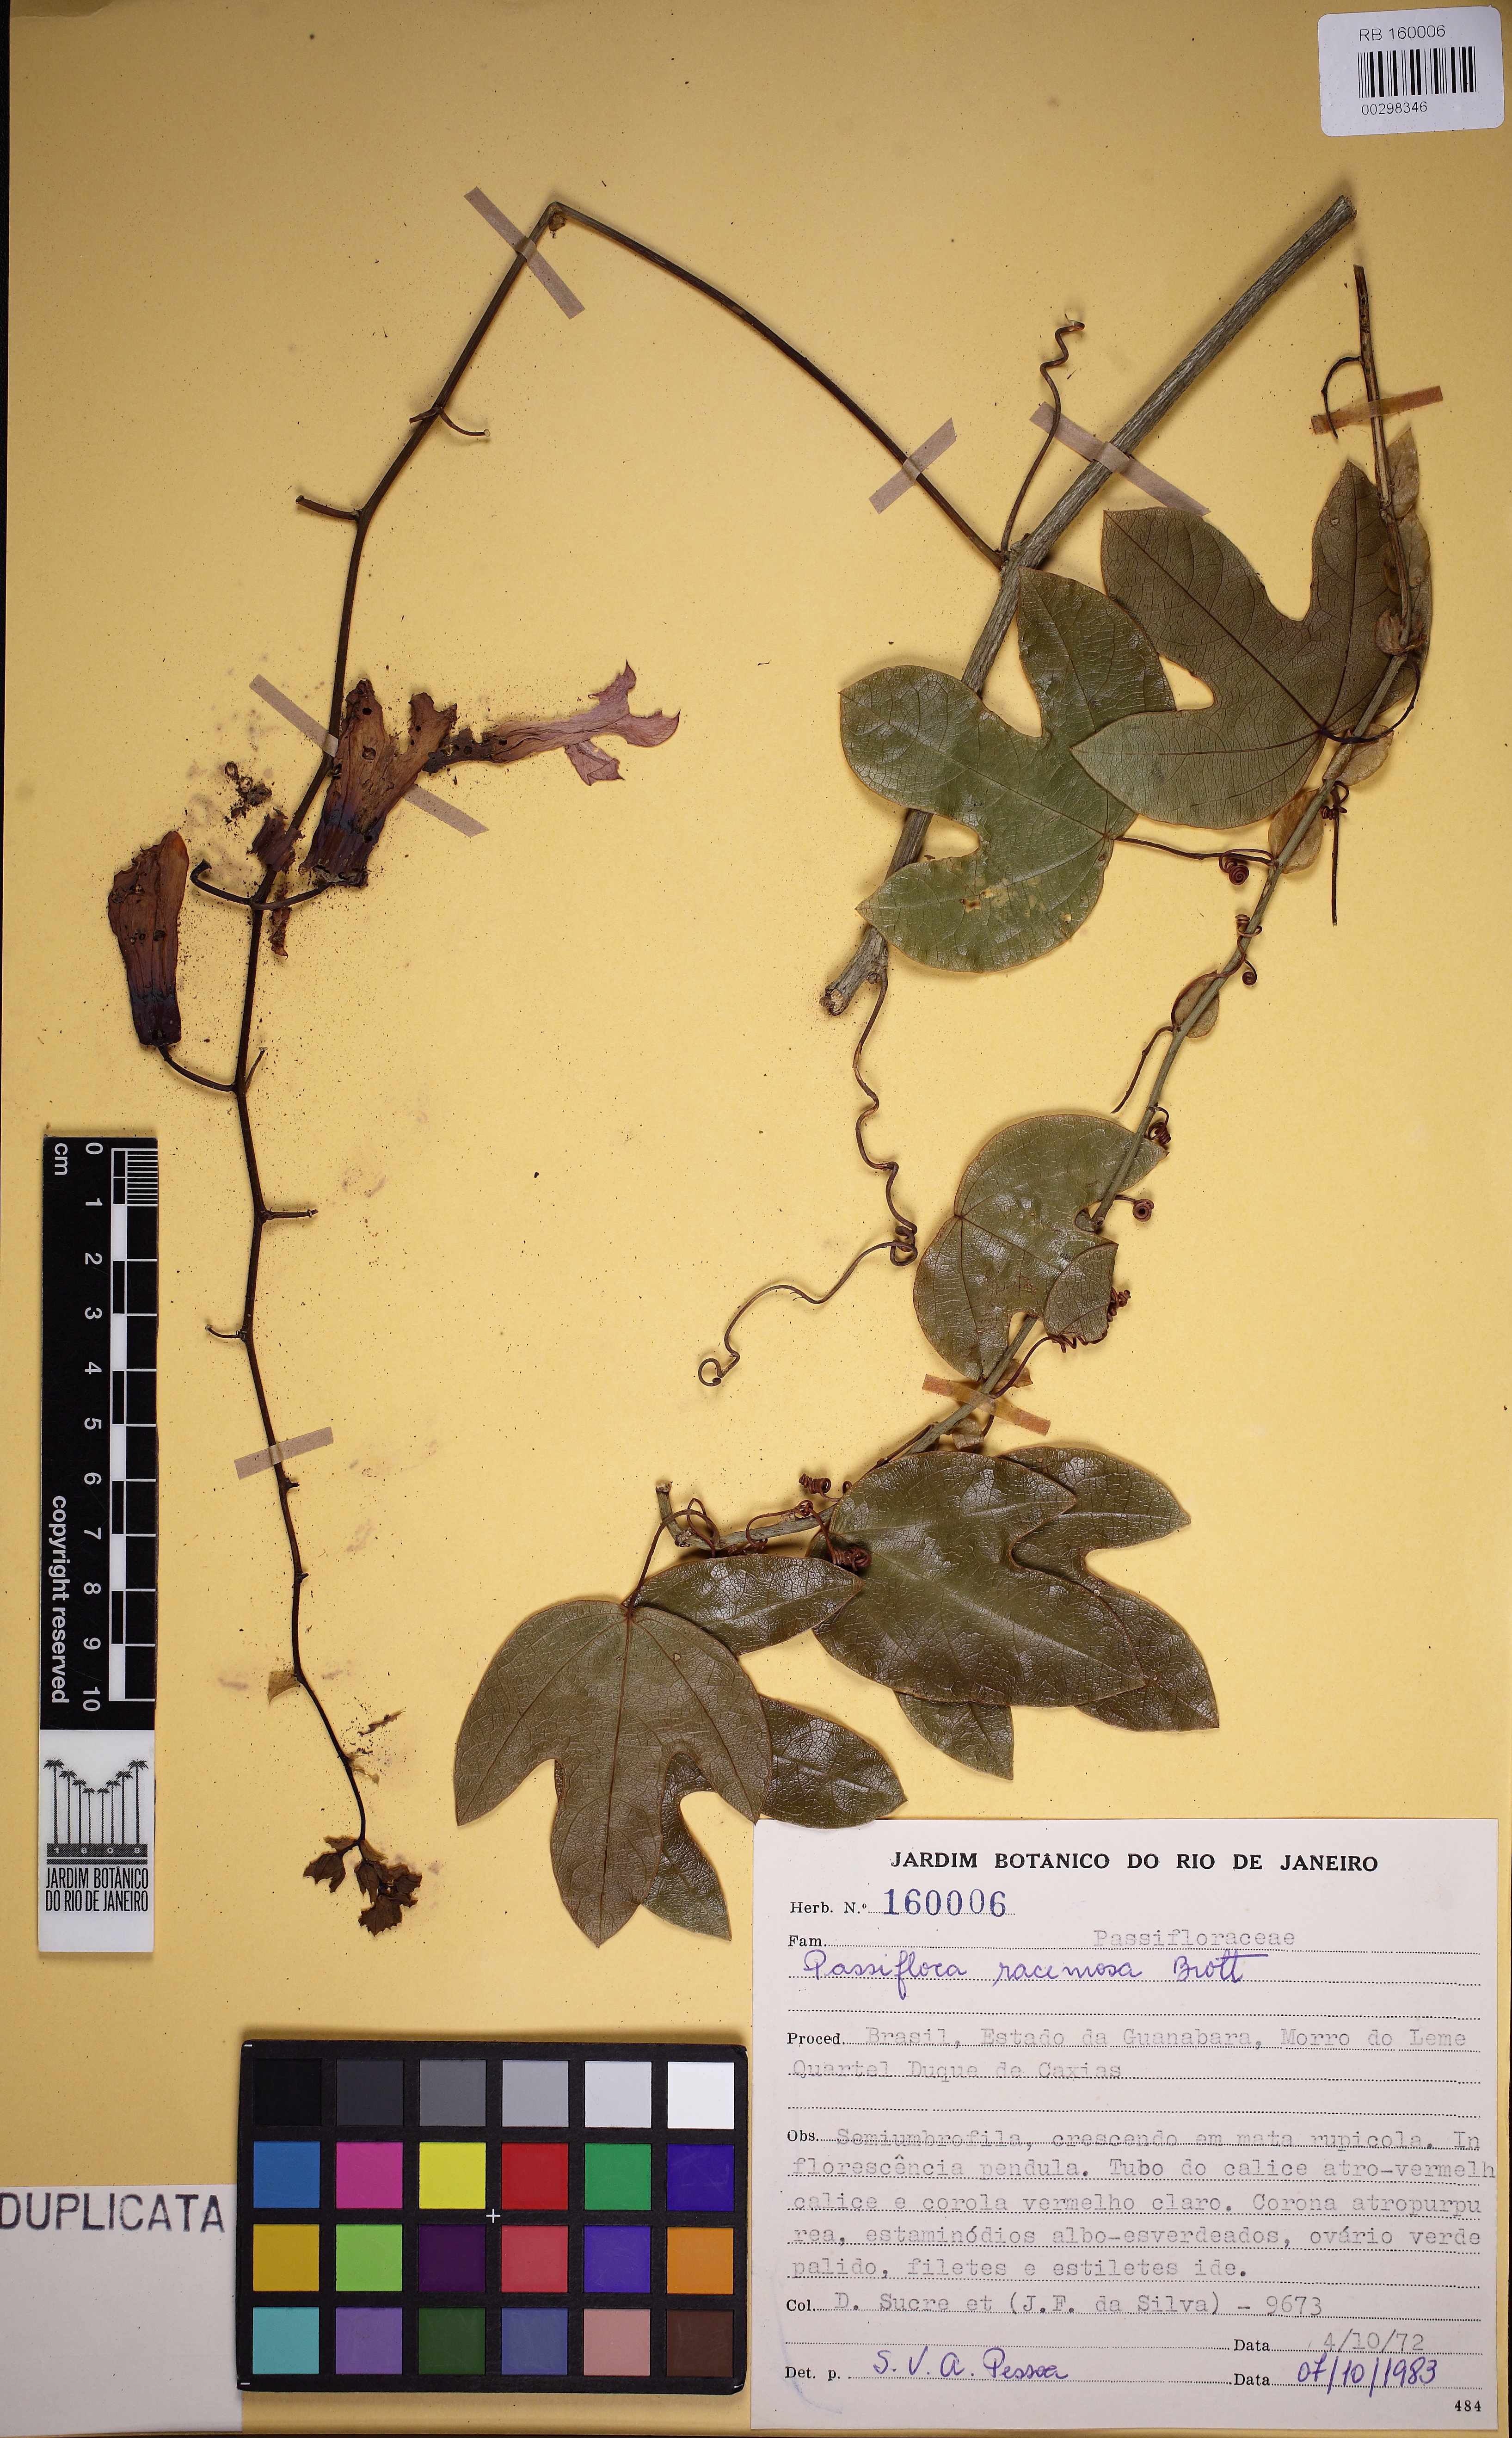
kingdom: Plantae
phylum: Tracheophyta
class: Magnoliopsida
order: Malpighiales
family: Passifloraceae
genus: Passiflora
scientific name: Passiflora racemosa
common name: Red passionflower
